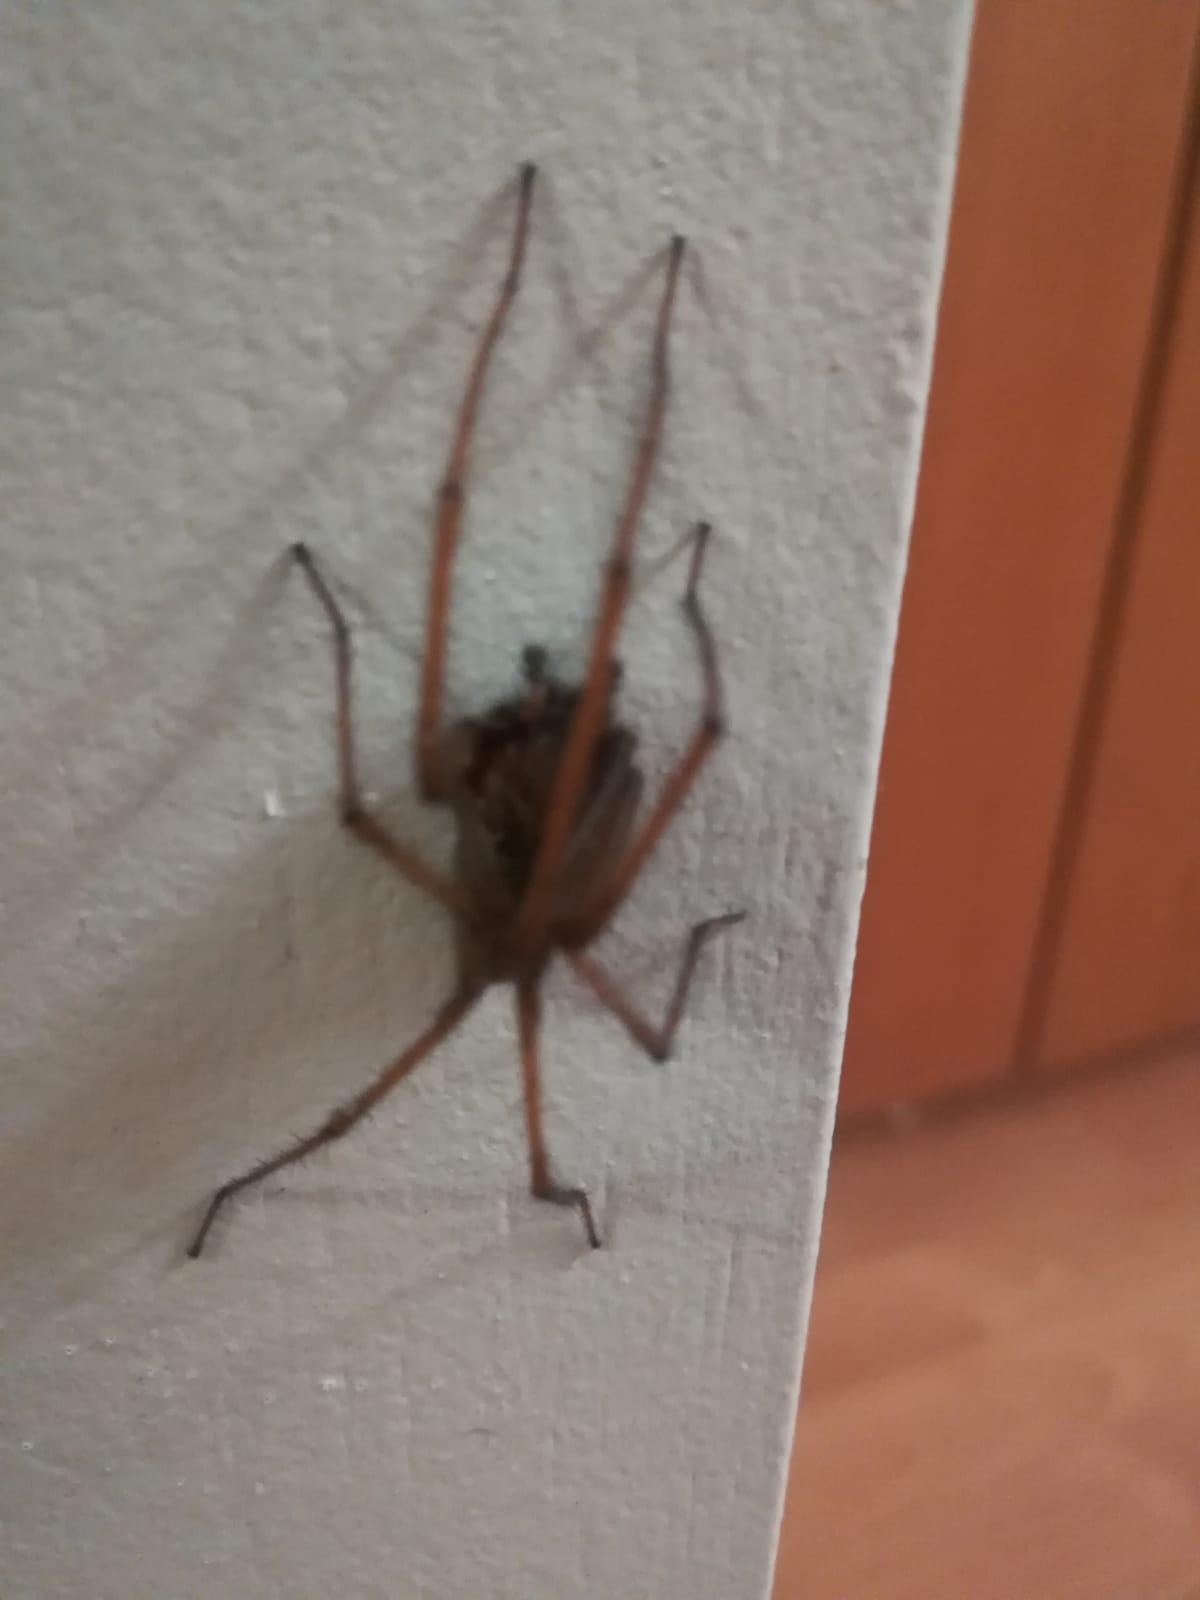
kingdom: Animalia
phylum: Arthropoda
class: Arachnida
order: Araneae
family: Agelenidae
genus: Eratigena
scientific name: Eratigena atrica
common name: Stor husedderkop
